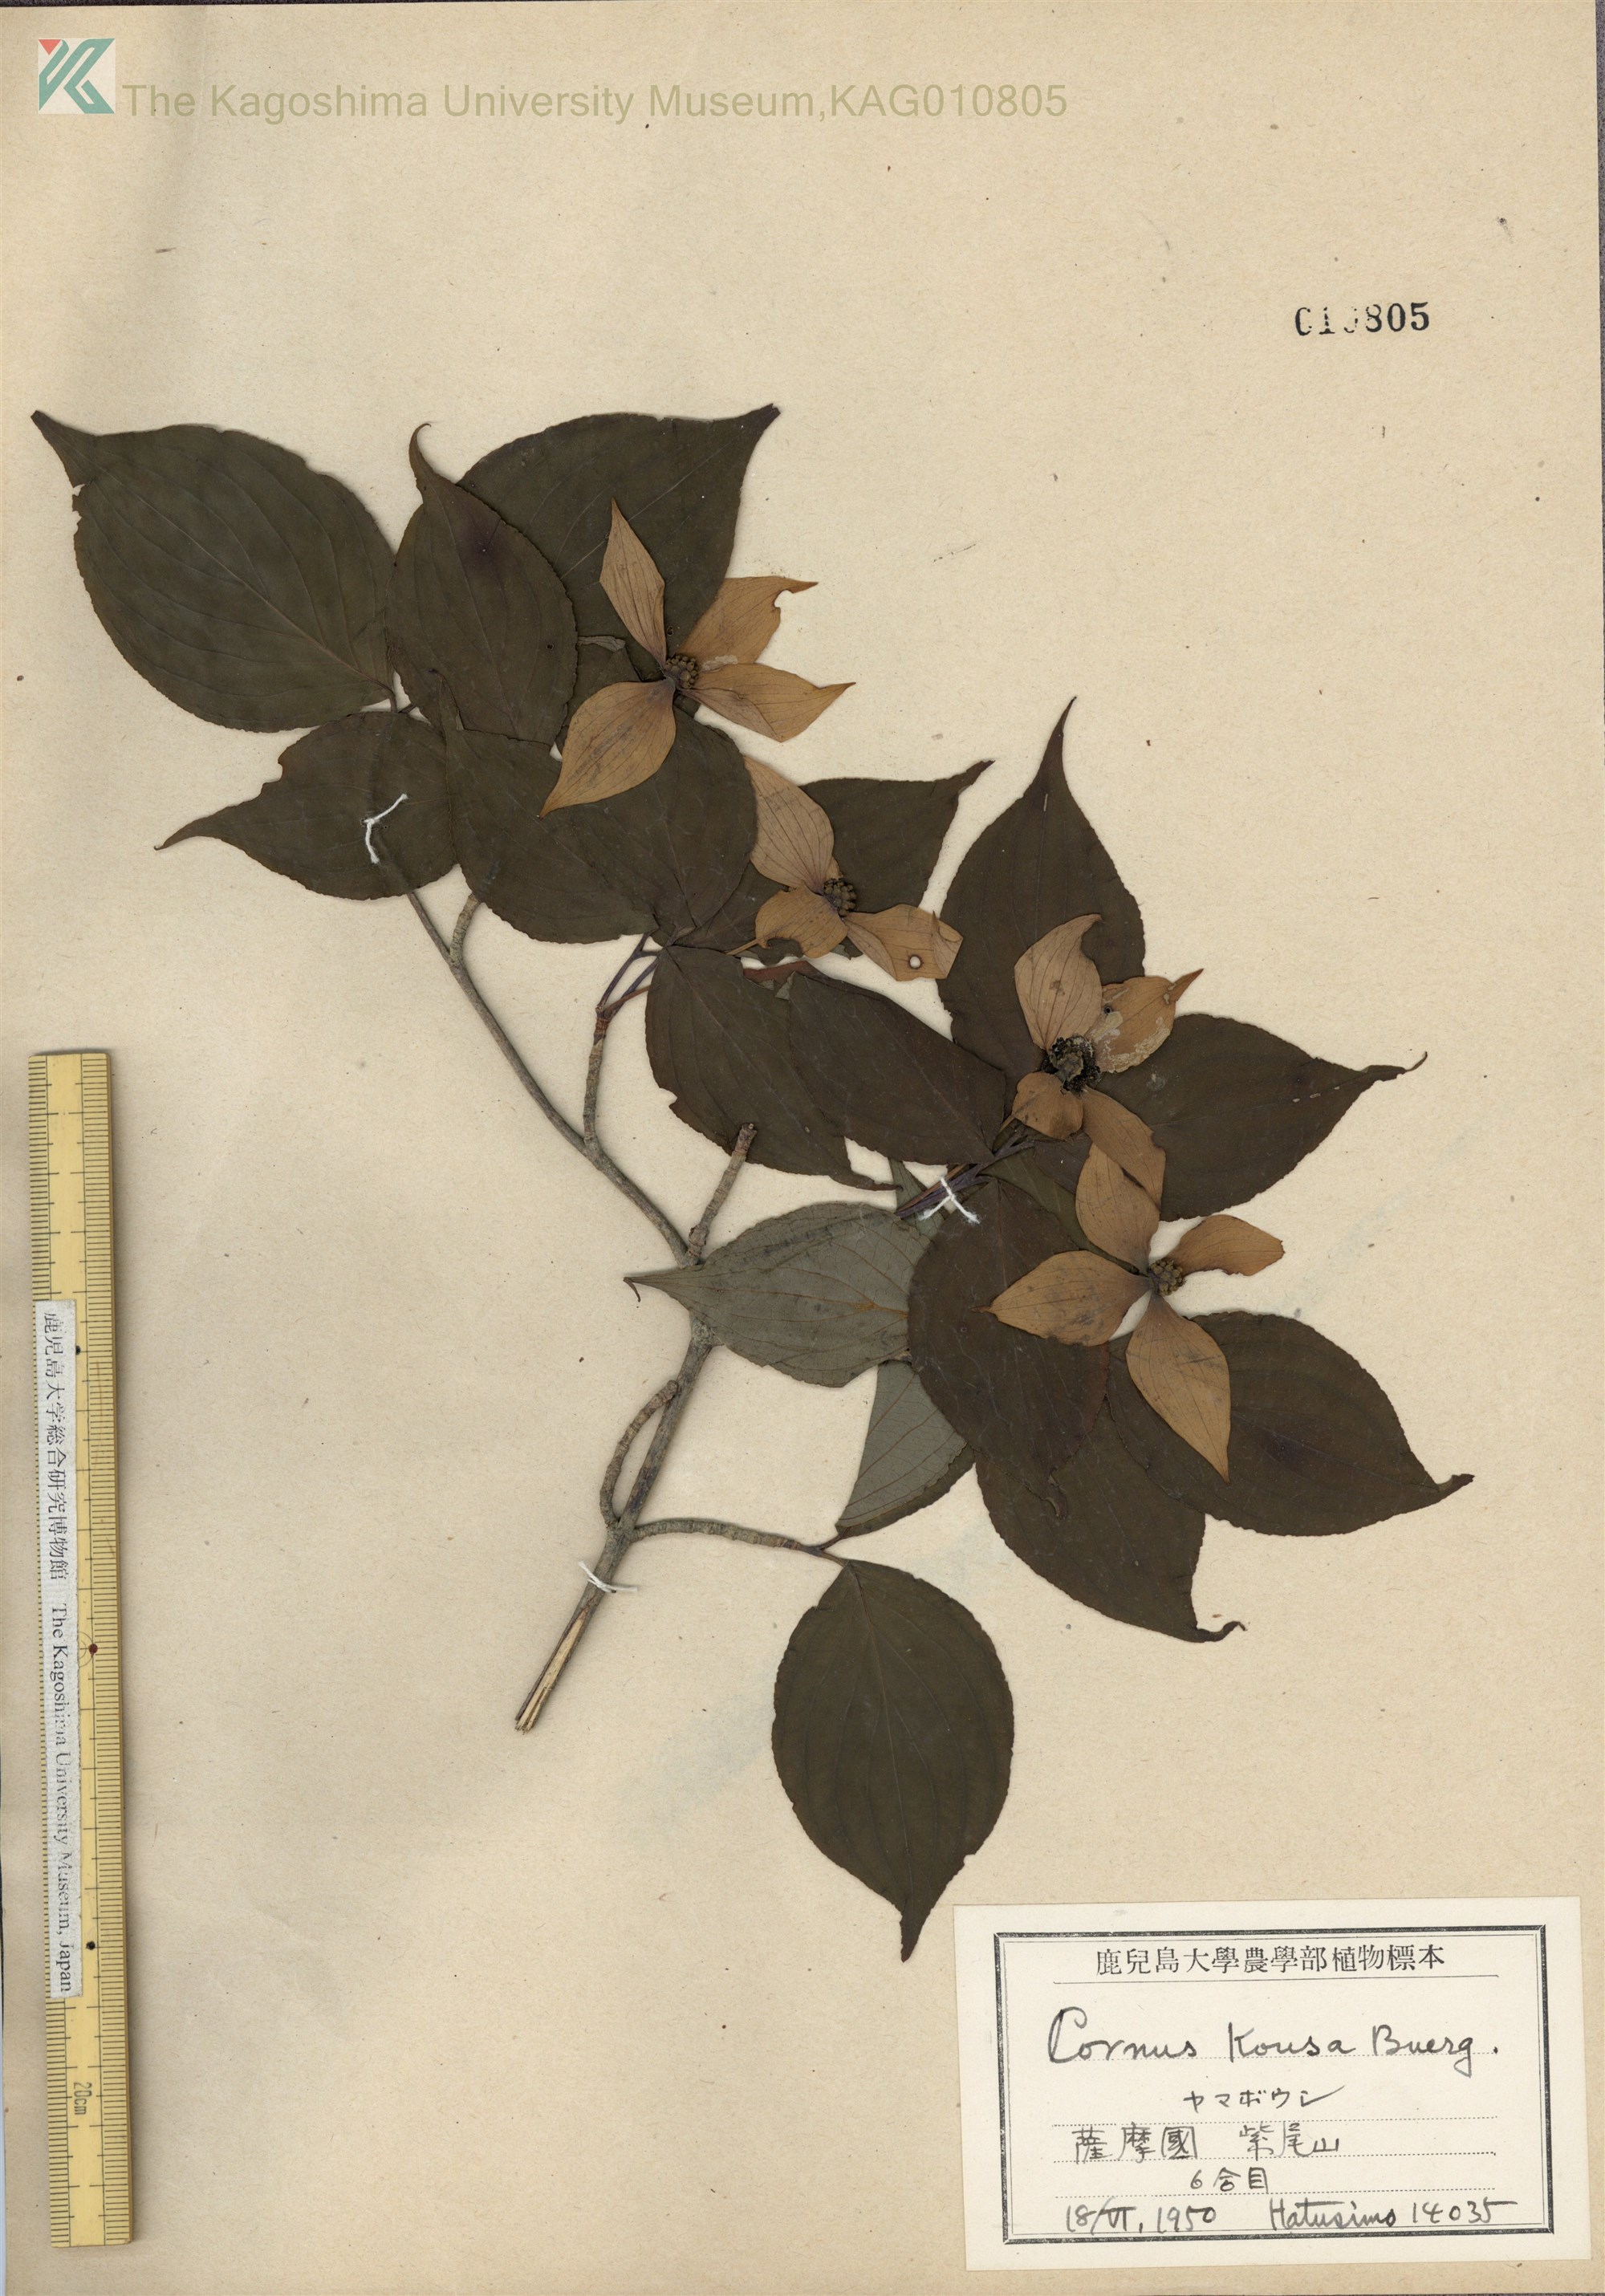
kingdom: Plantae
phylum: Tracheophyta
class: Magnoliopsida
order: Cornales
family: Cornaceae
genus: Cornus
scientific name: Cornus kousa
